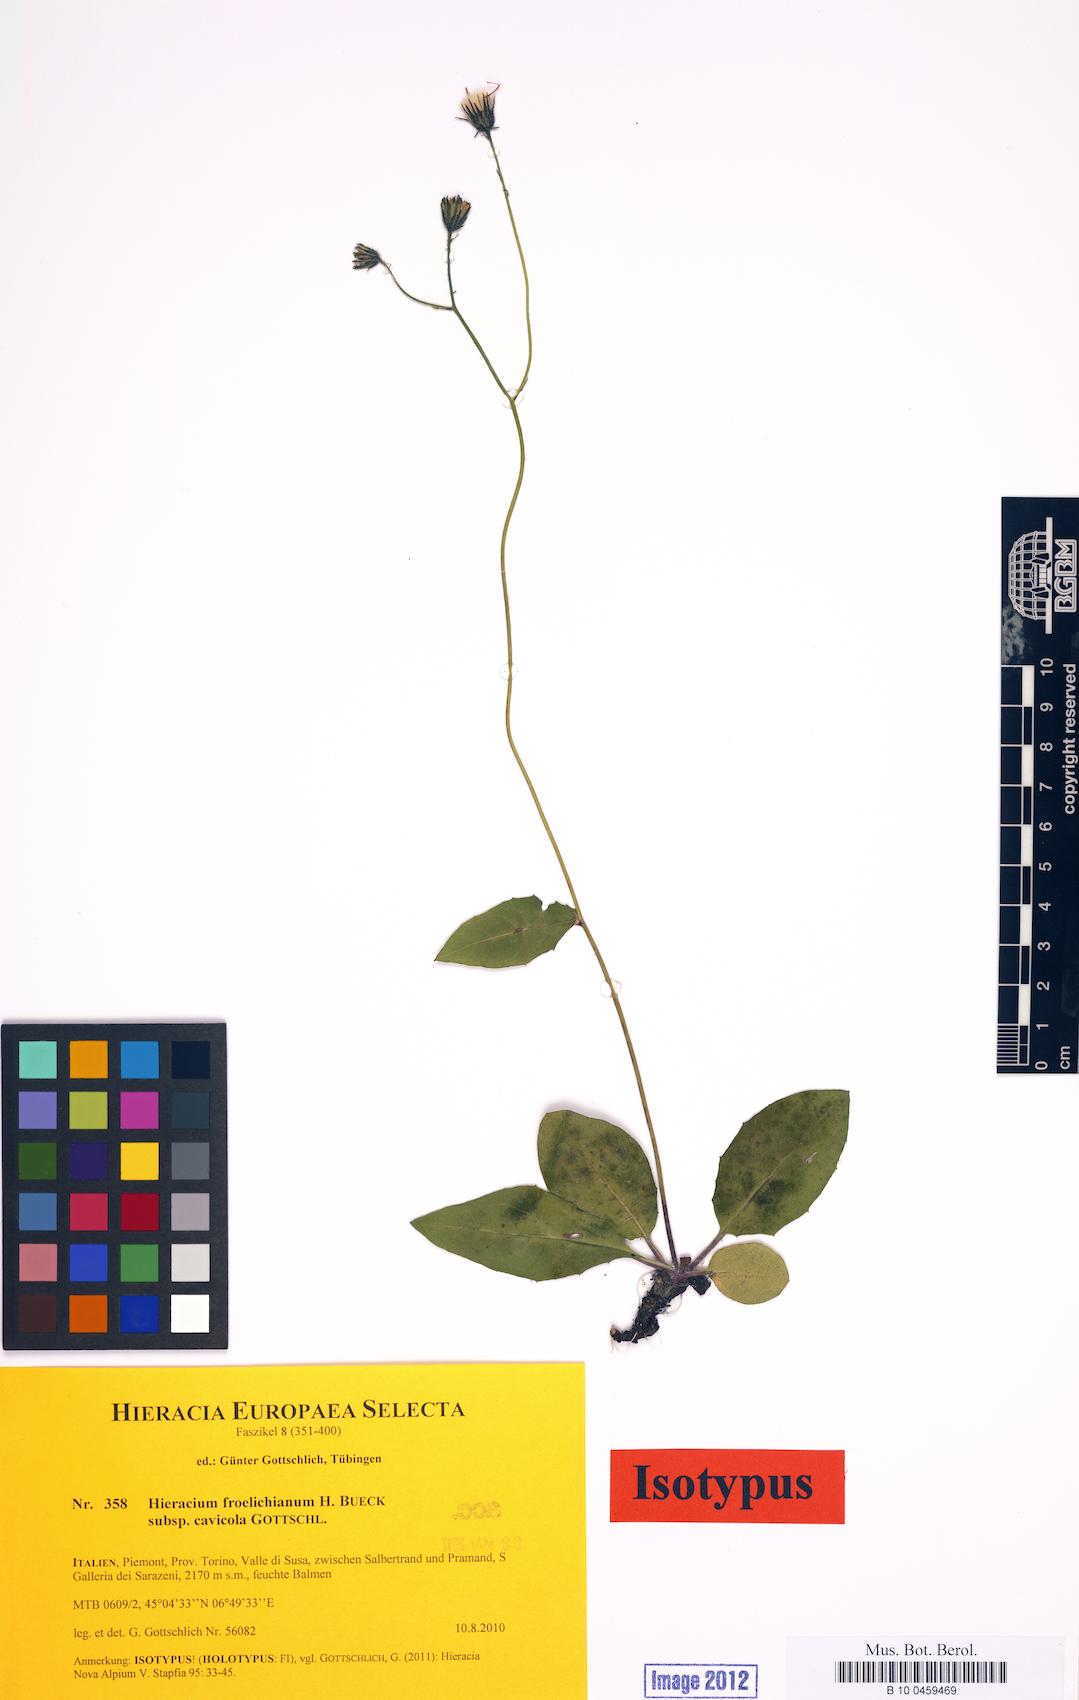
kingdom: Plantae
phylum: Tracheophyta
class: Magnoliopsida
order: Asterales
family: Asteraceae
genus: Hieracium
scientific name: Hieracium froelichianum
